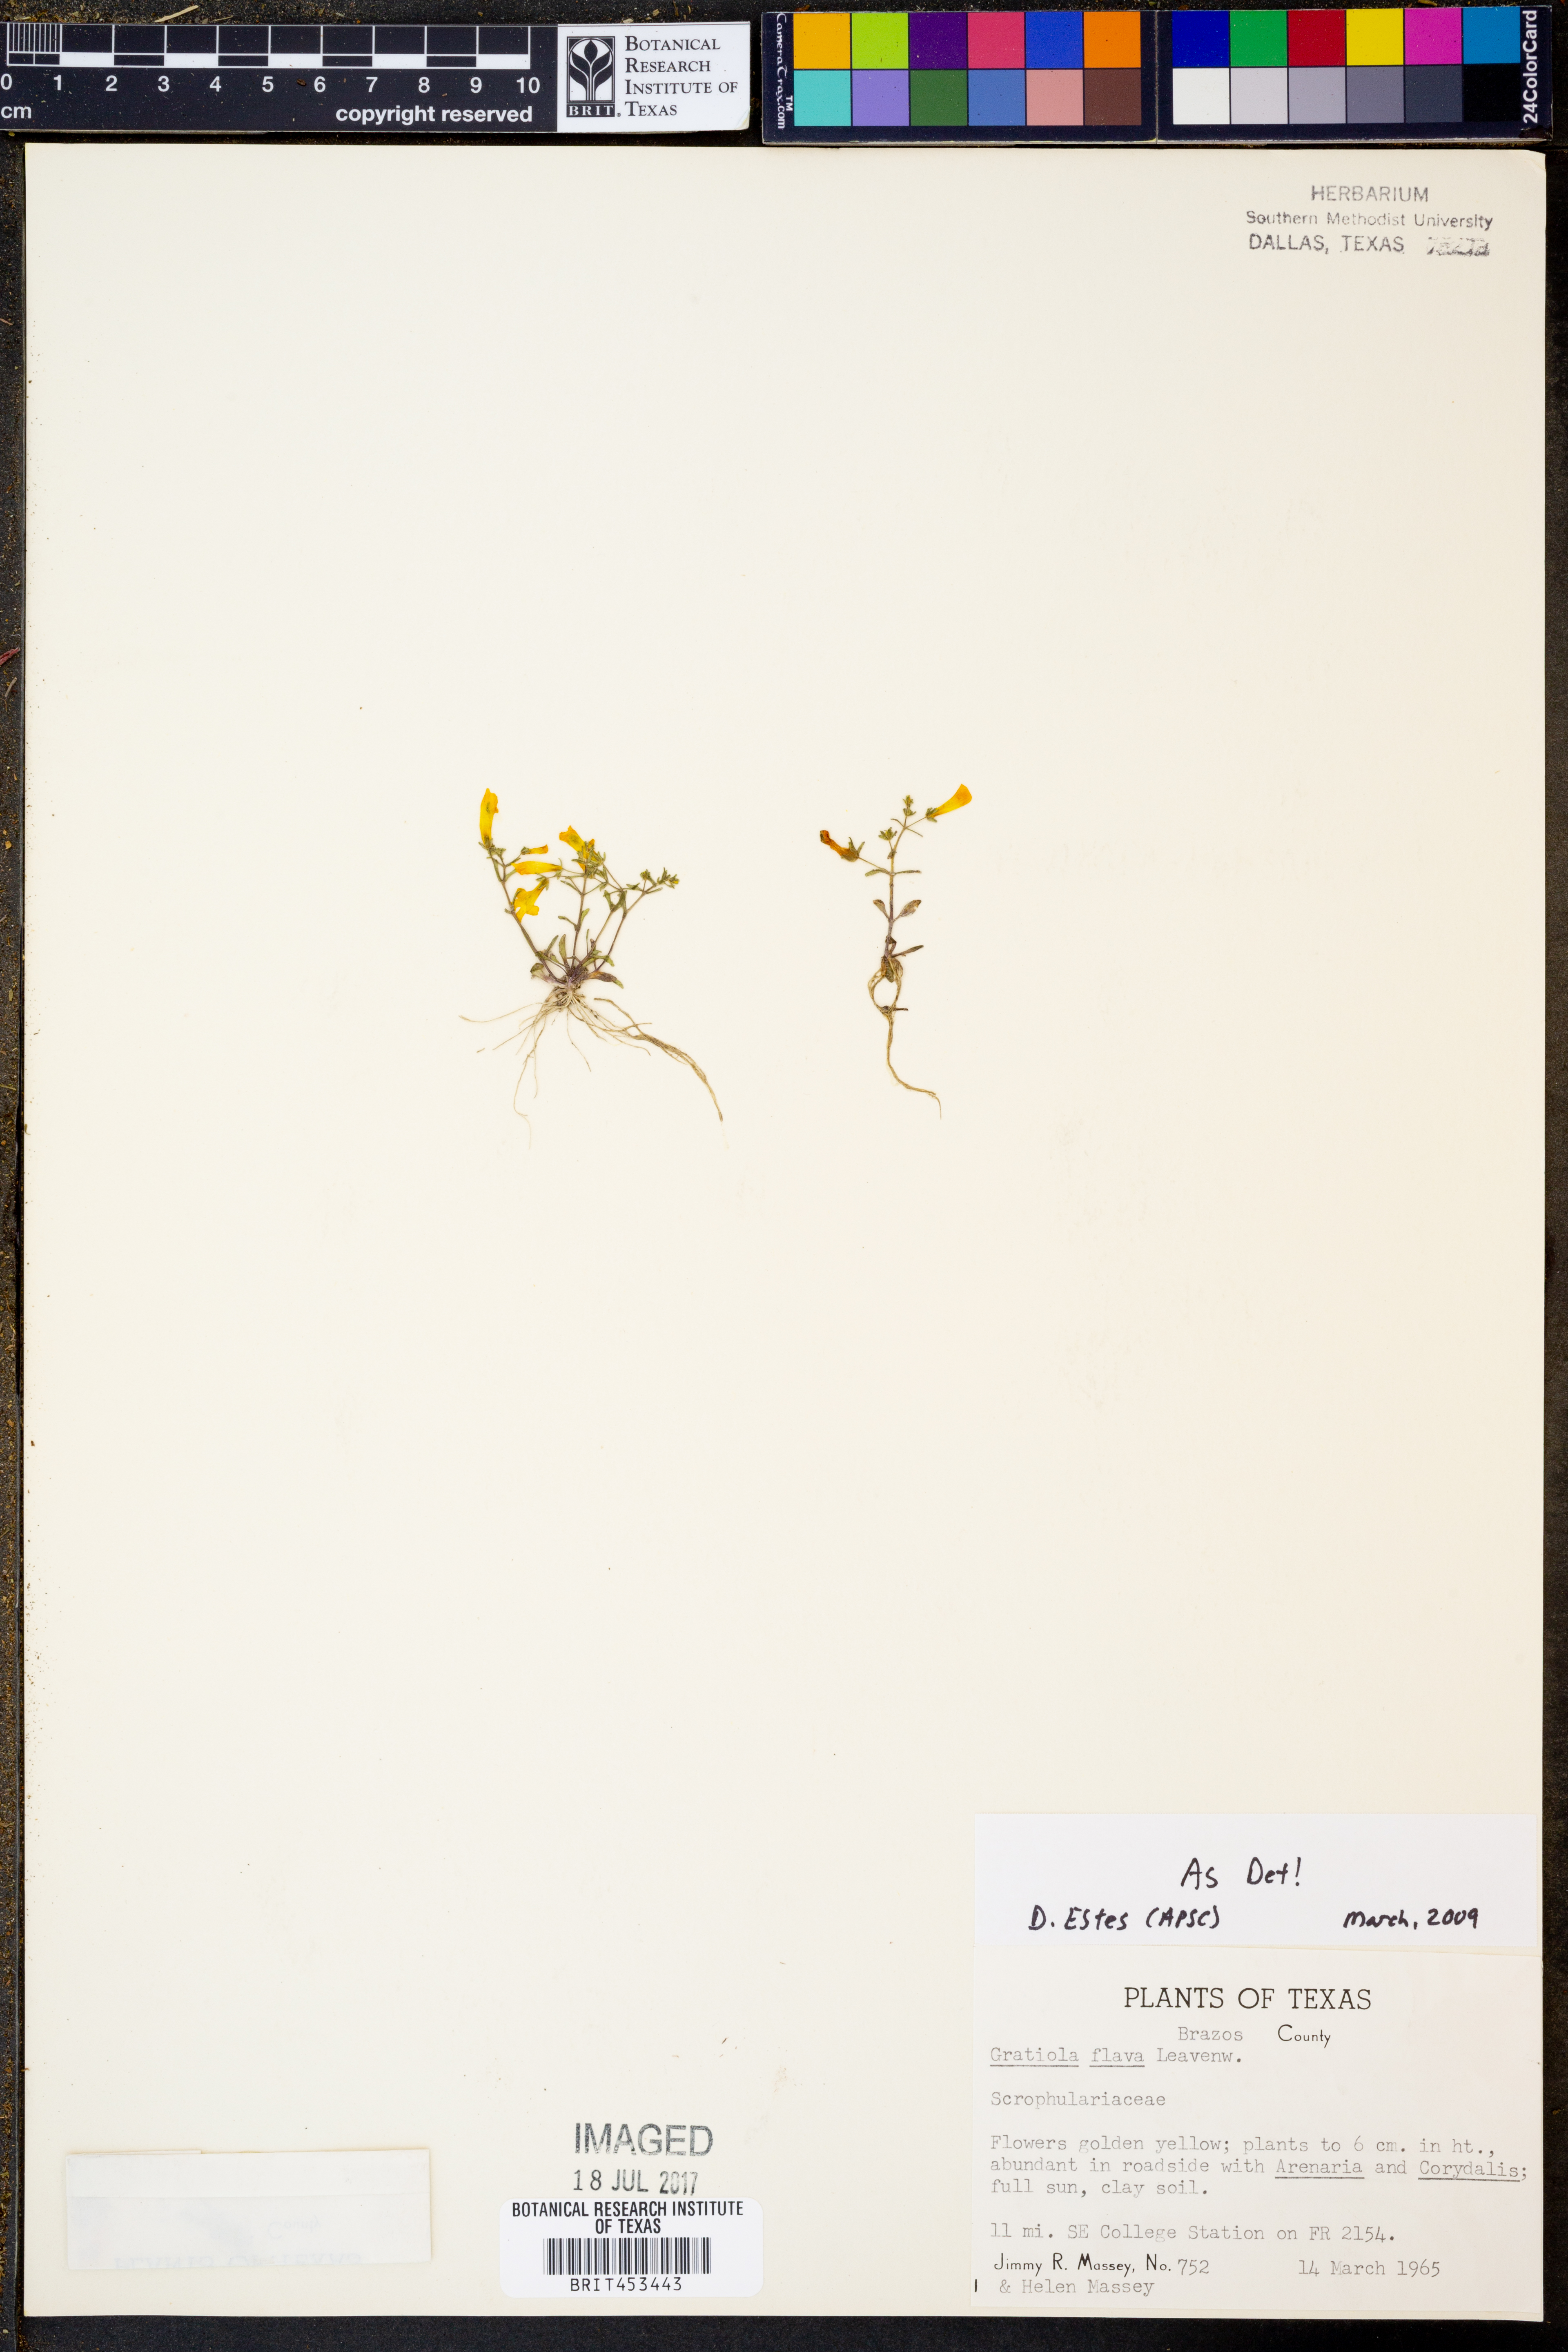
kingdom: Plantae
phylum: Tracheophyta
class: Magnoliopsida
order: Lamiales
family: Plantaginaceae
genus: Gratiola
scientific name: Gratiola flava
